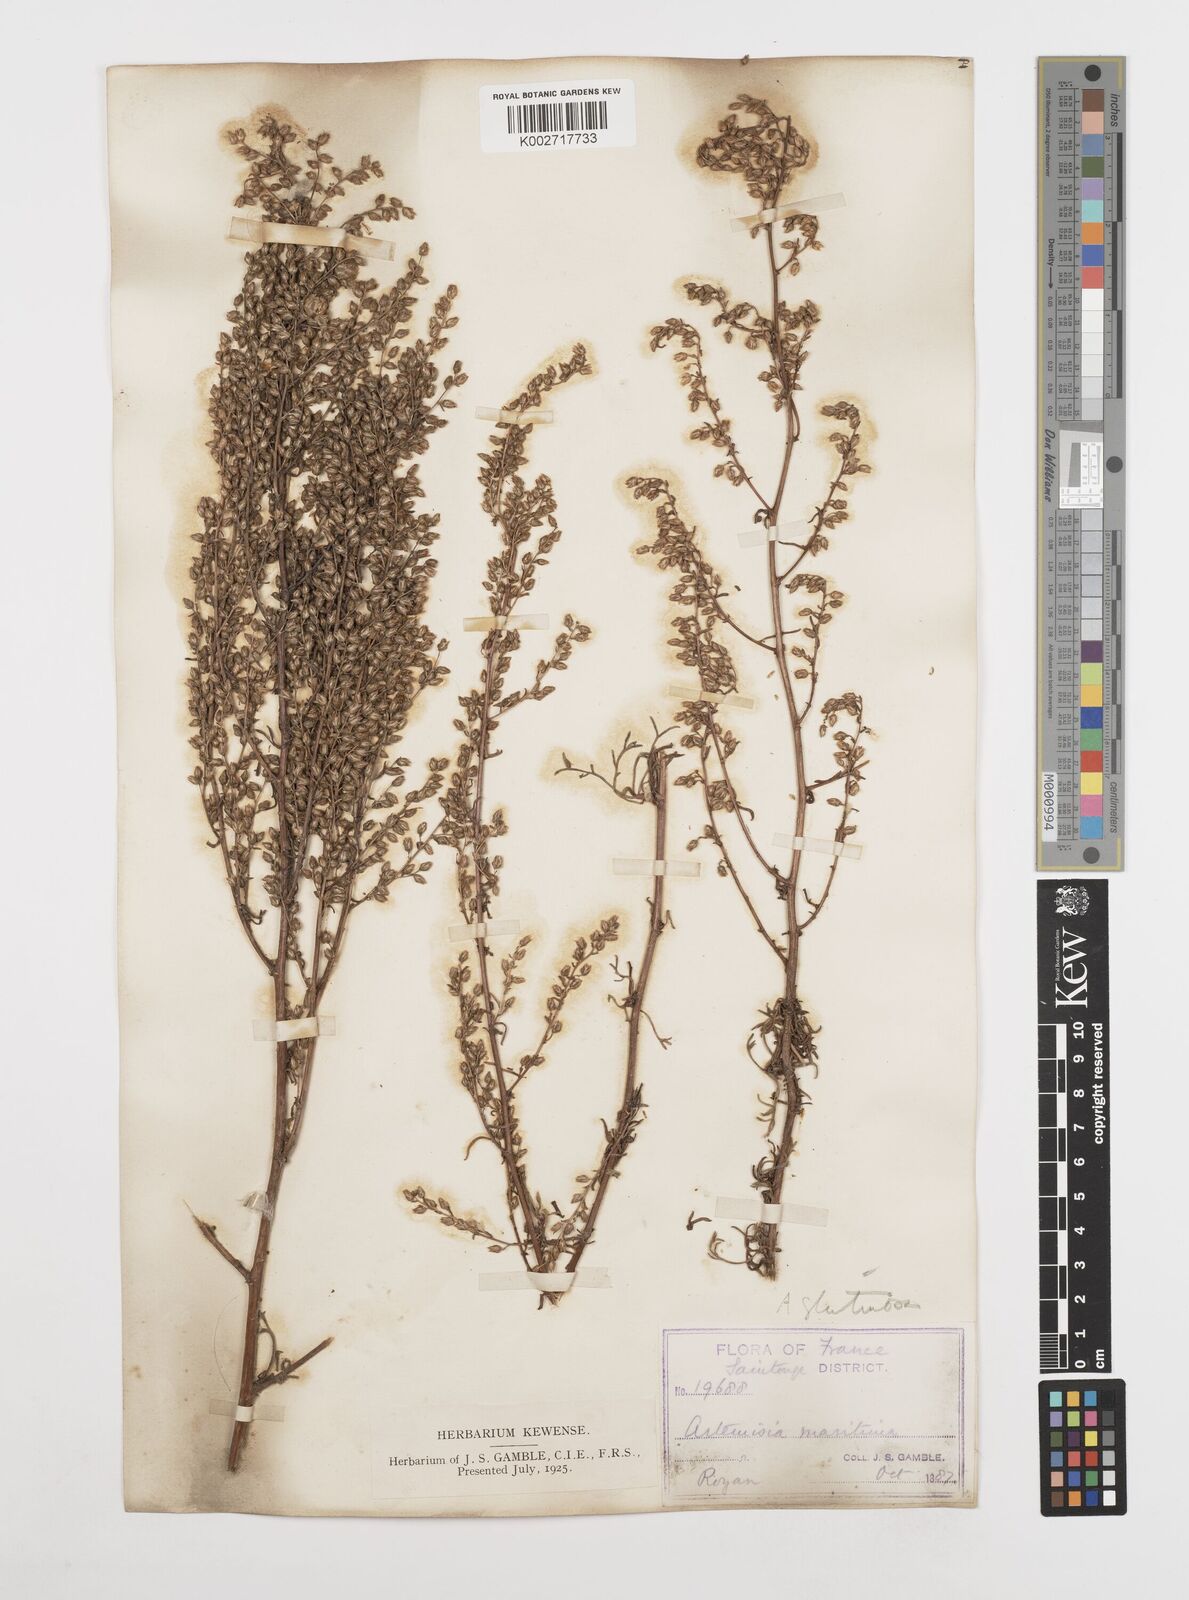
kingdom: Plantae
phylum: Tracheophyta
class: Magnoliopsida
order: Asterales
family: Asteraceae
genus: Artemisia
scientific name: Artemisia campestris
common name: Field wormwood
